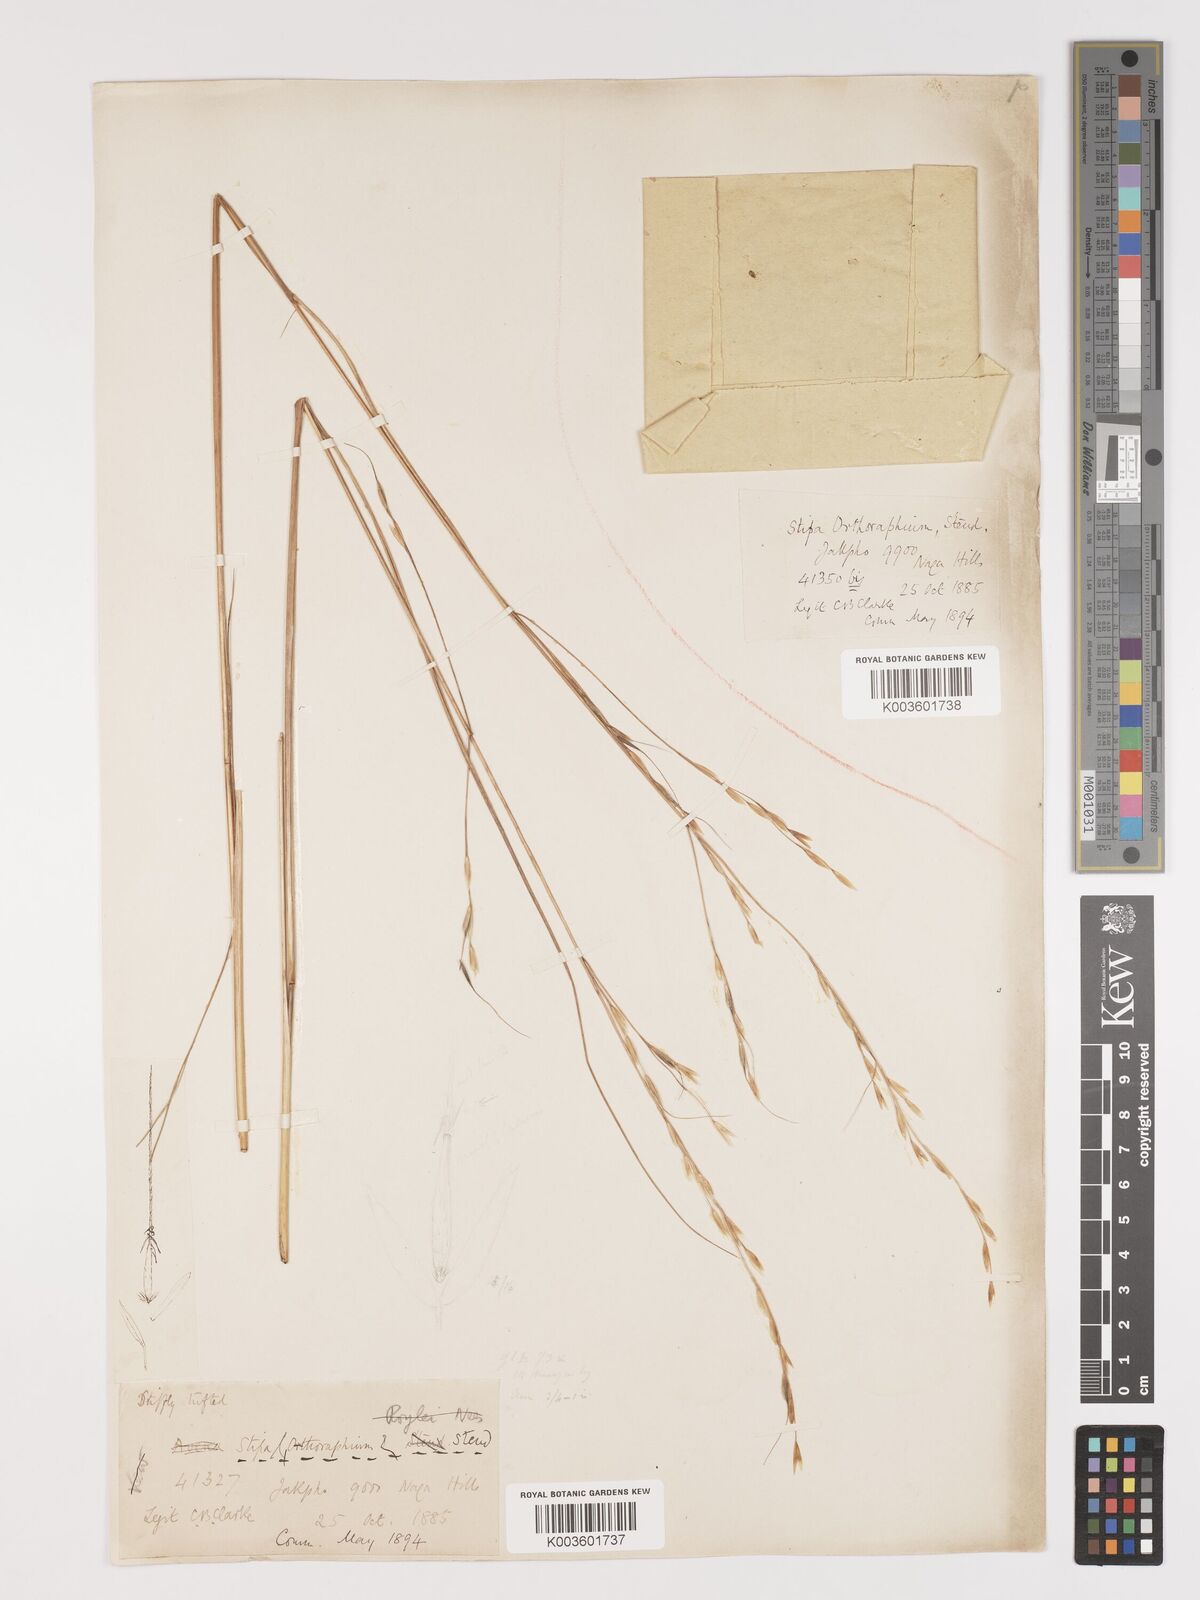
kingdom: Plantae
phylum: Tracheophyta
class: Liliopsida
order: Poales
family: Poaceae
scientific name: Poaceae
